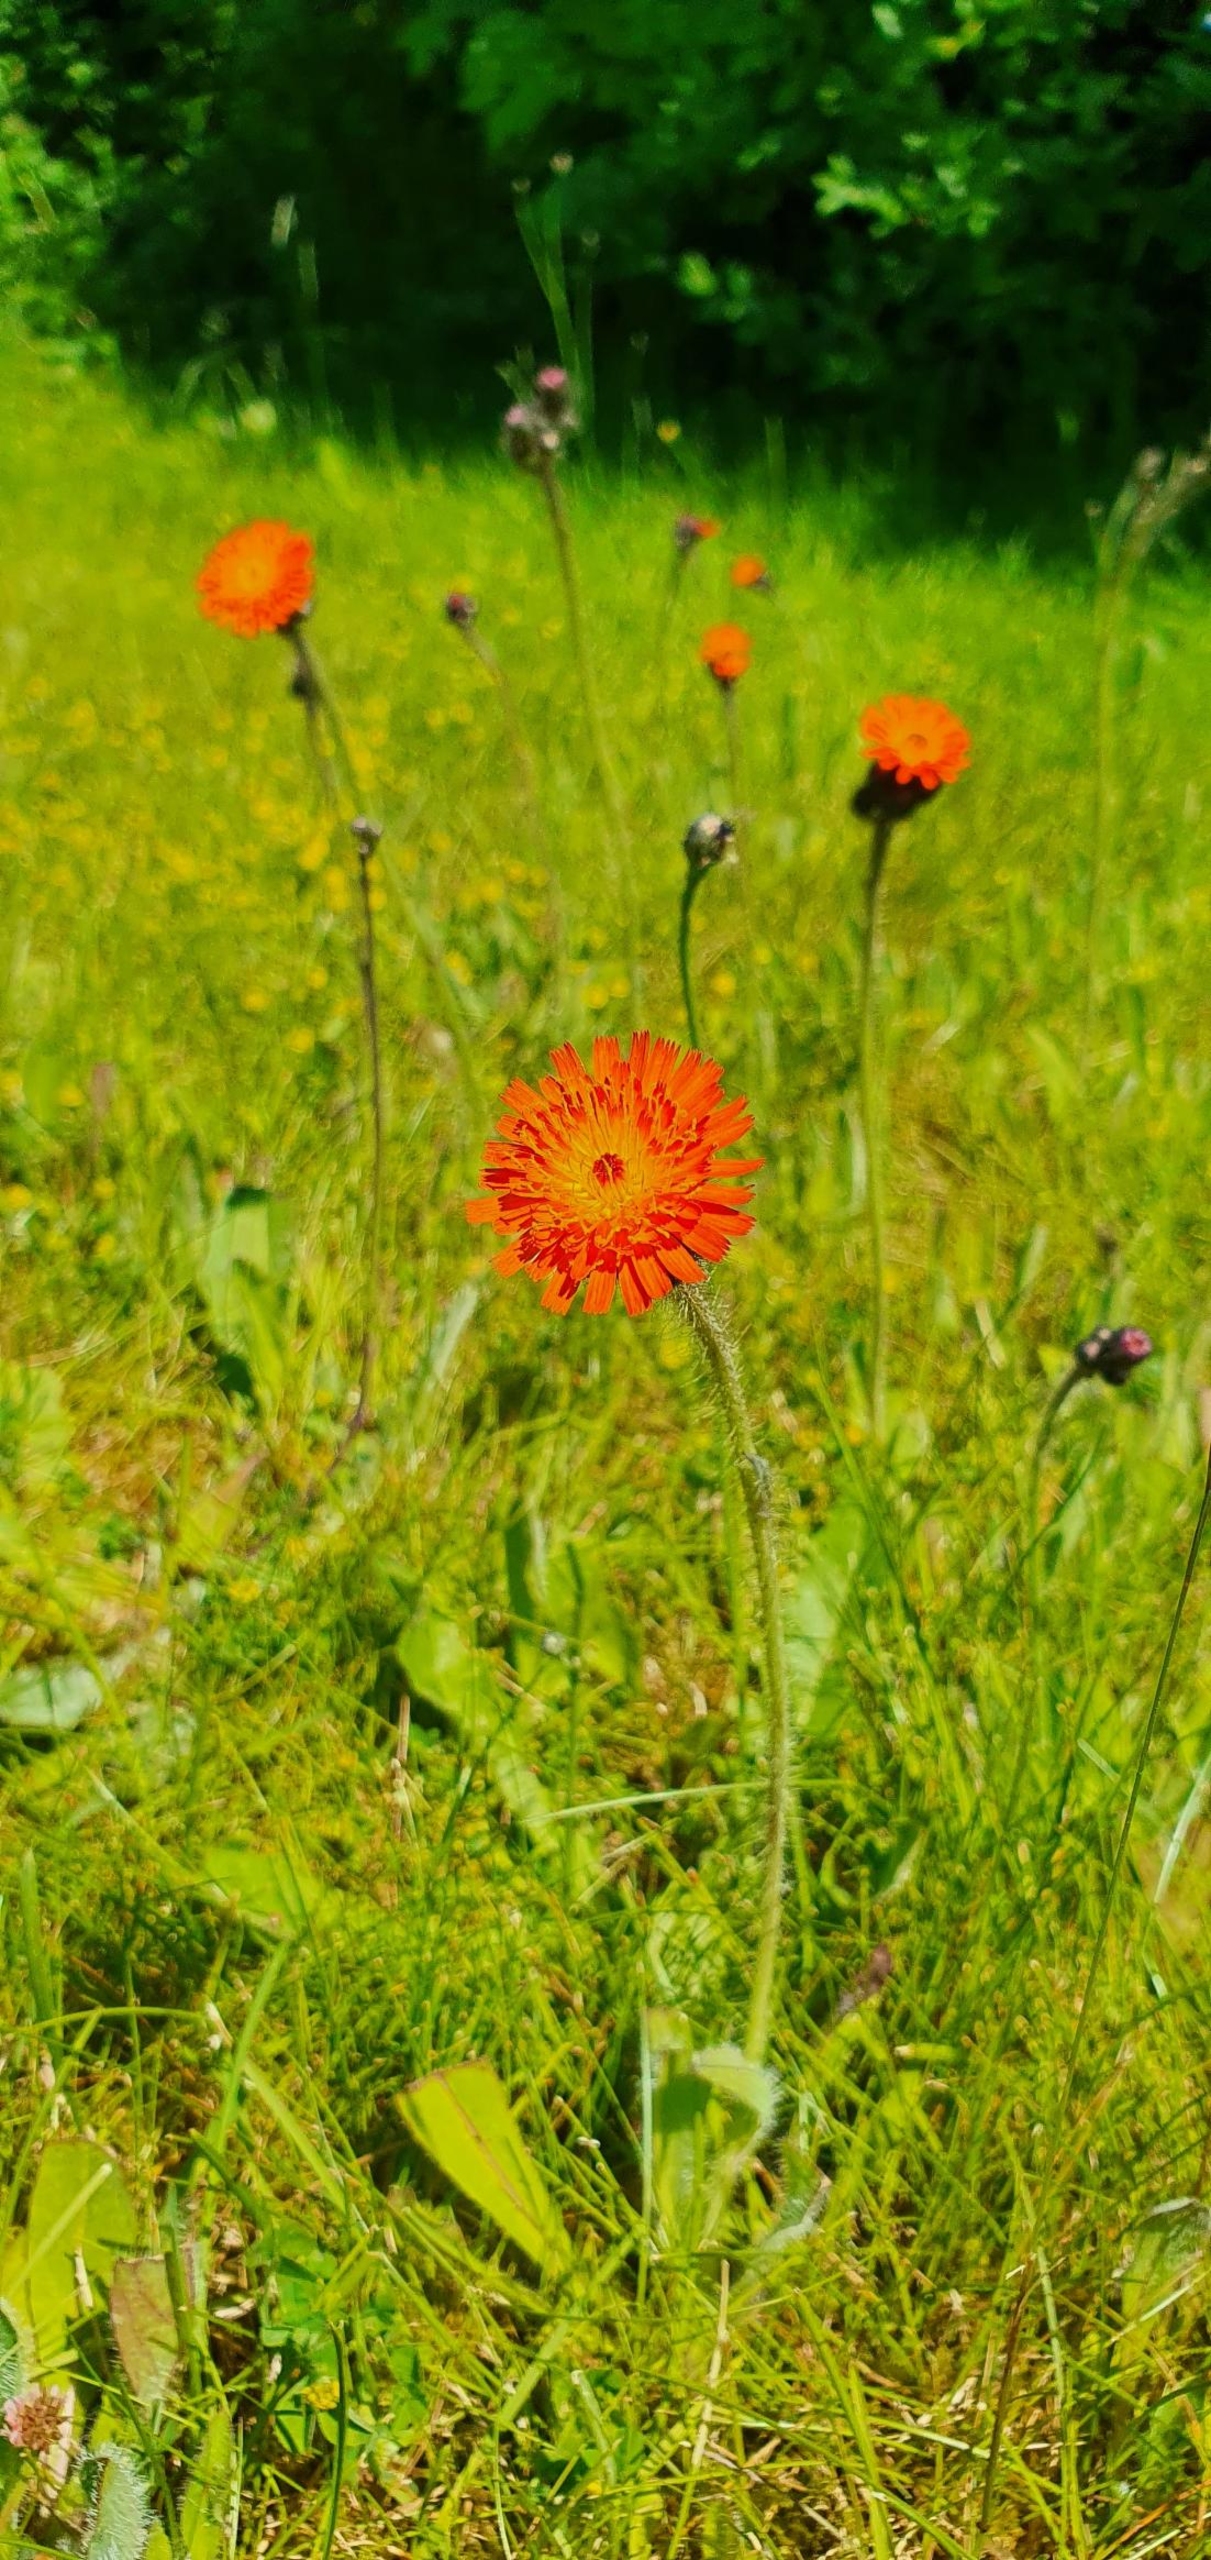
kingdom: Plantae
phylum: Tracheophyta
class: Magnoliopsida
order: Asterales
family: Asteraceae
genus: Pilosella
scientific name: Pilosella aurantiaca
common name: Pomerans-høgeurt
